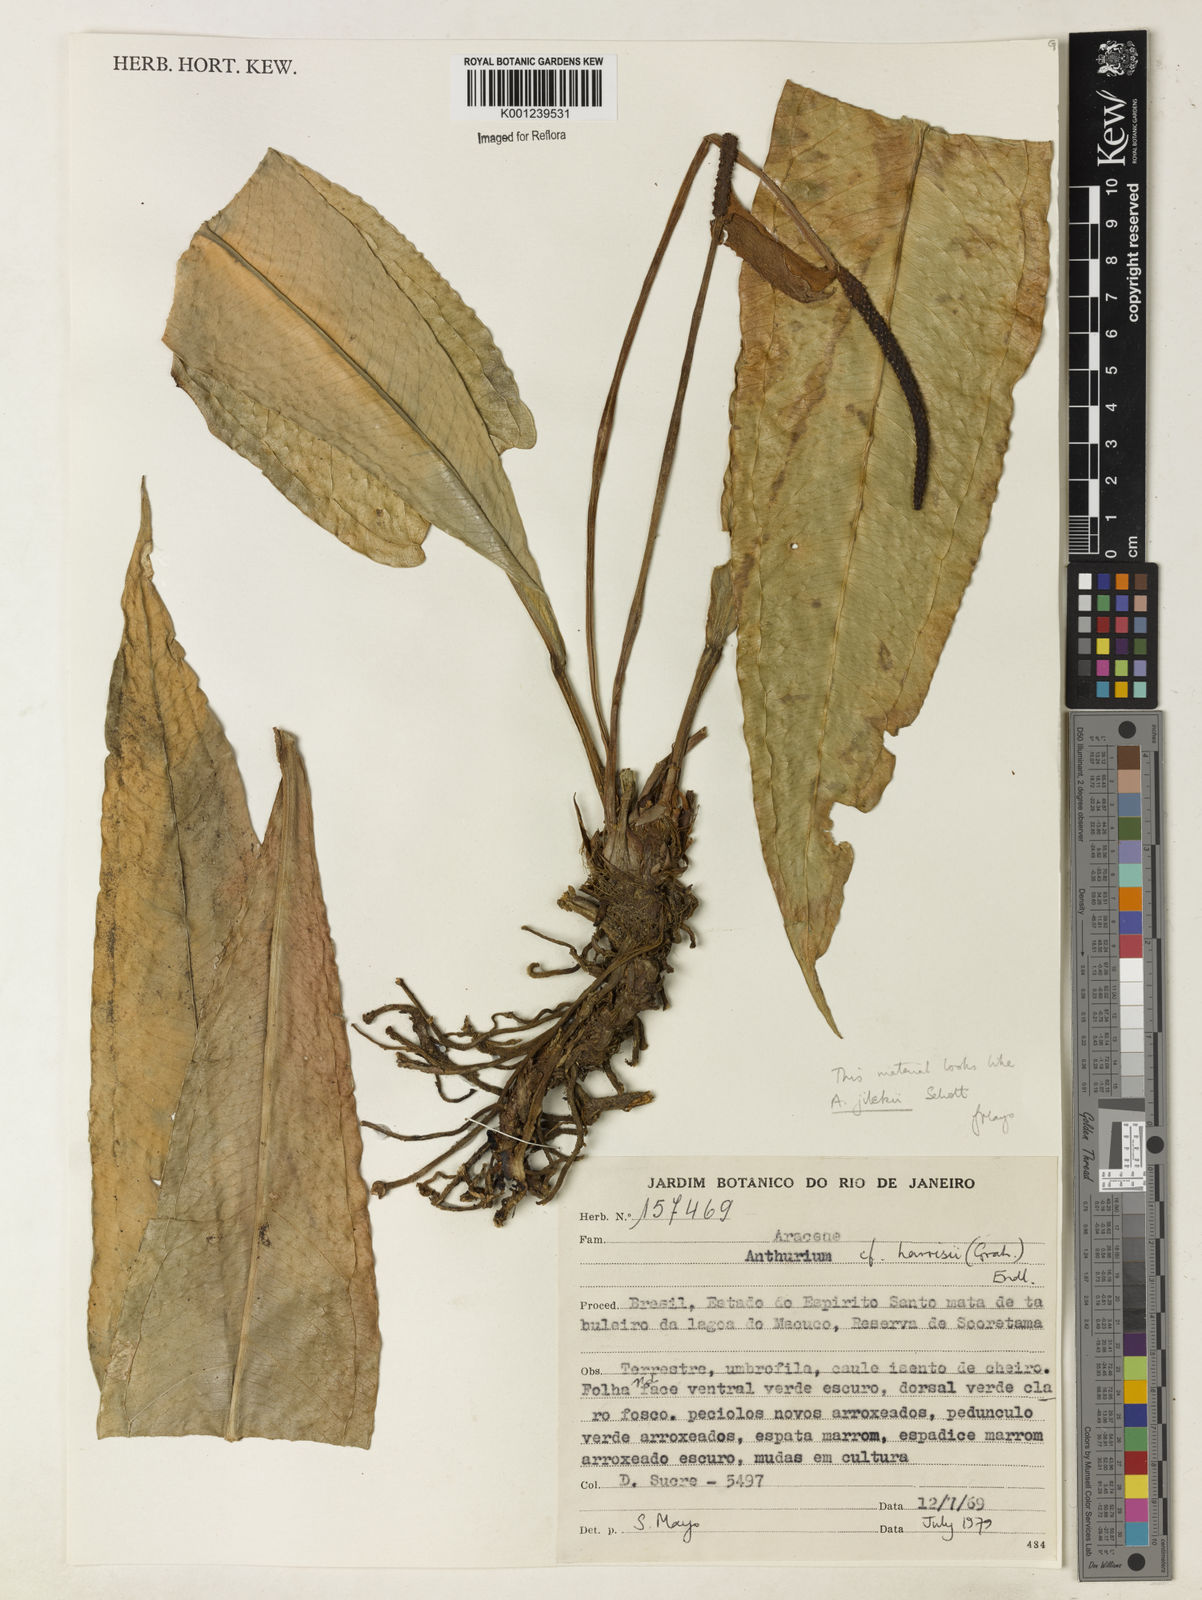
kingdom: Plantae
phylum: Tracheophyta
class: Liliopsida
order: Alismatales
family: Araceae
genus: Anthurium
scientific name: Anthurium jilekii
